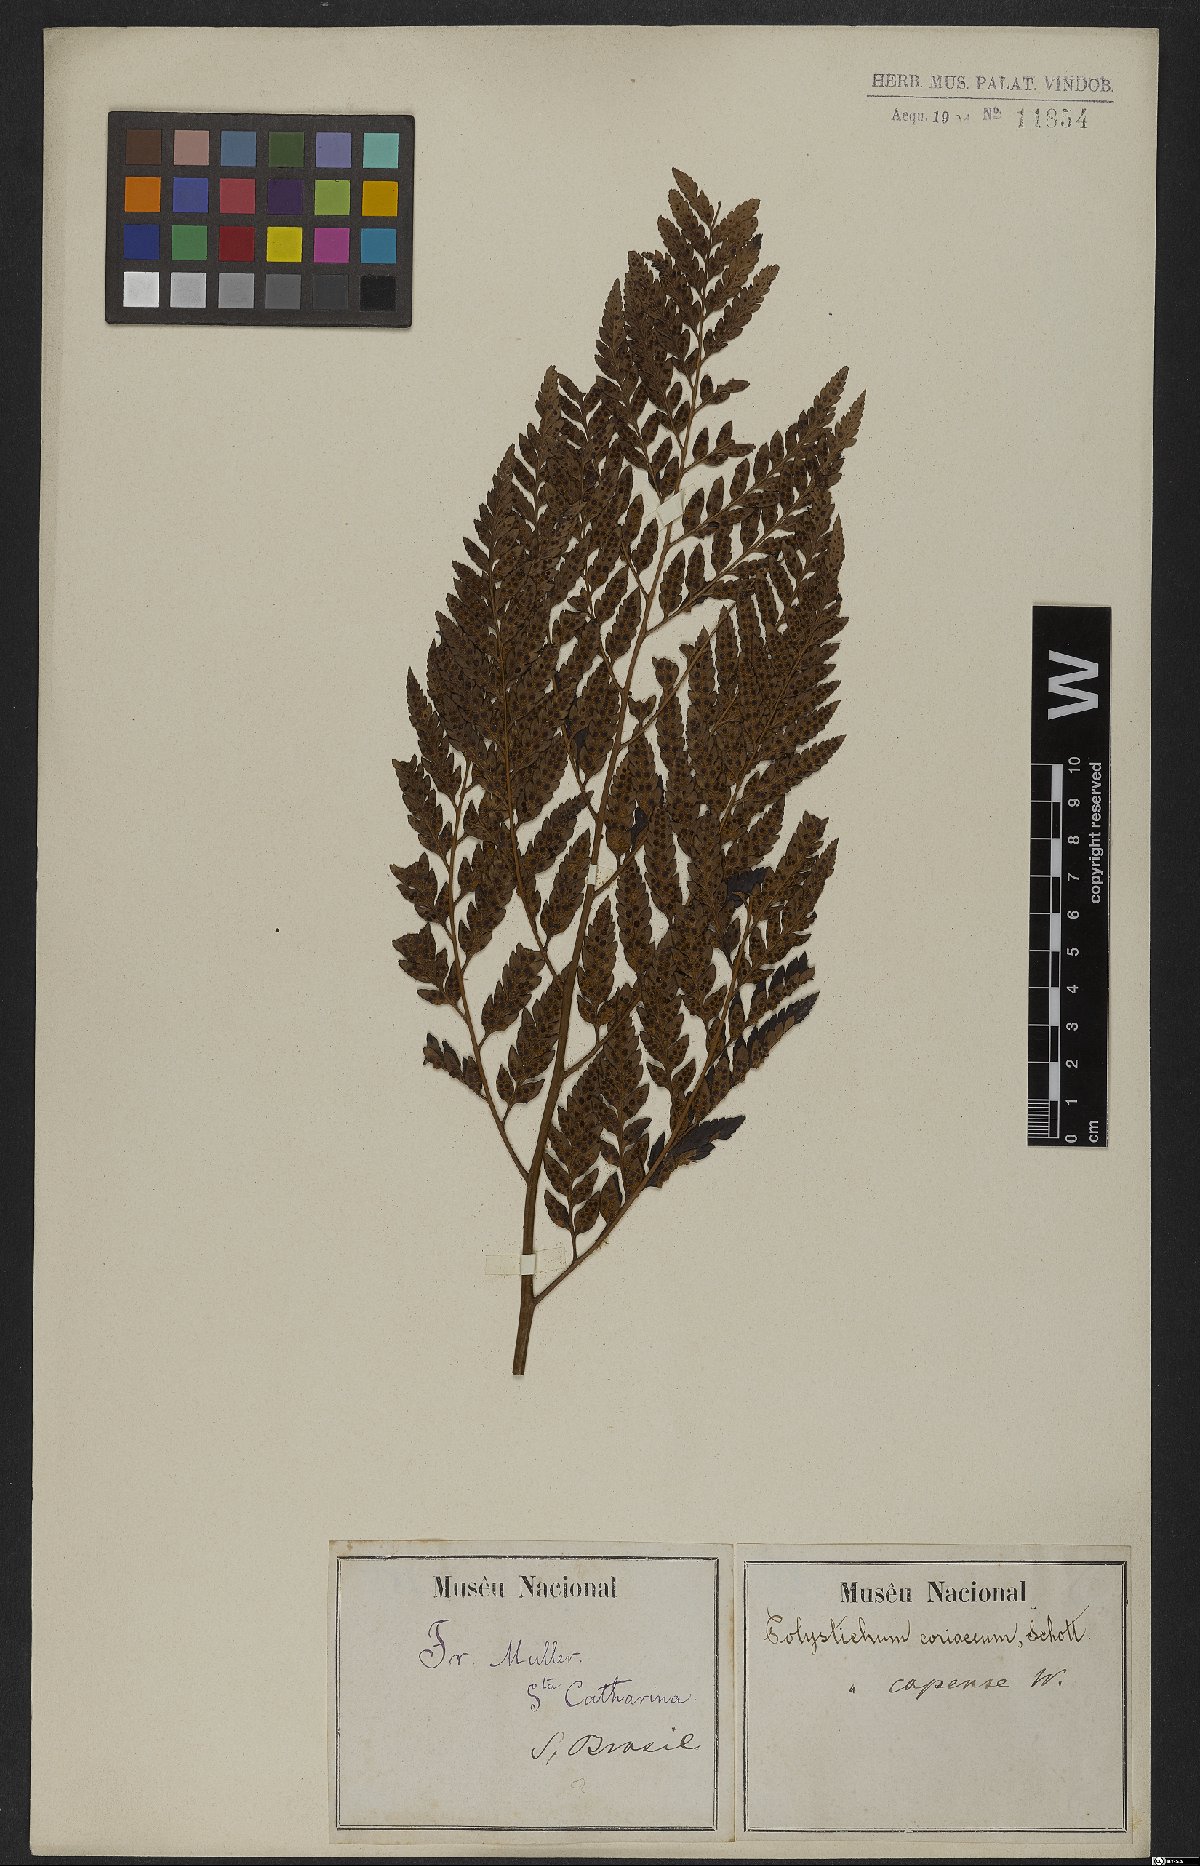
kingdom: Plantae
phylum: Tracheophyta
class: Polypodiopsida
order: Polypodiales
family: Dryopteridaceae
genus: Rumohra
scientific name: Rumohra adiantiformis
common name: Leather fern
